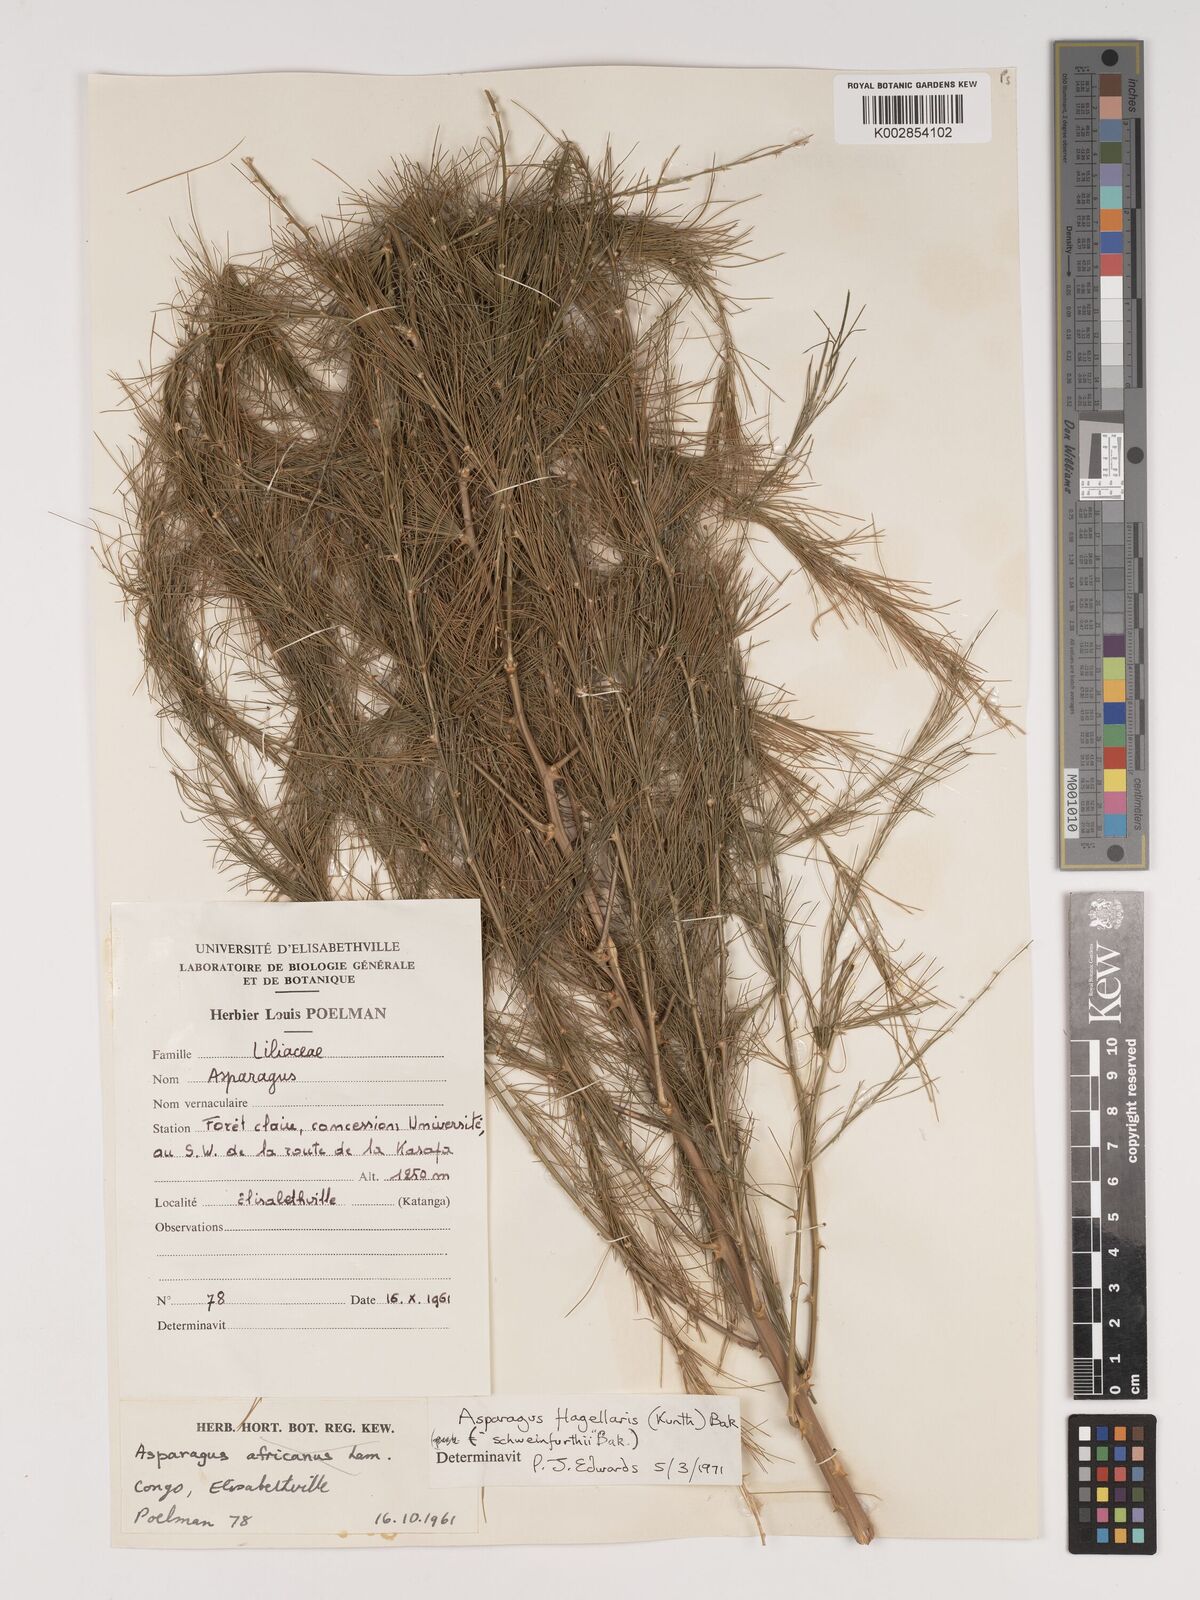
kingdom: Plantae
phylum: Tracheophyta
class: Liliopsida
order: Asparagales
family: Asparagaceae
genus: Asparagus
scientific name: Asparagus flagellaris
